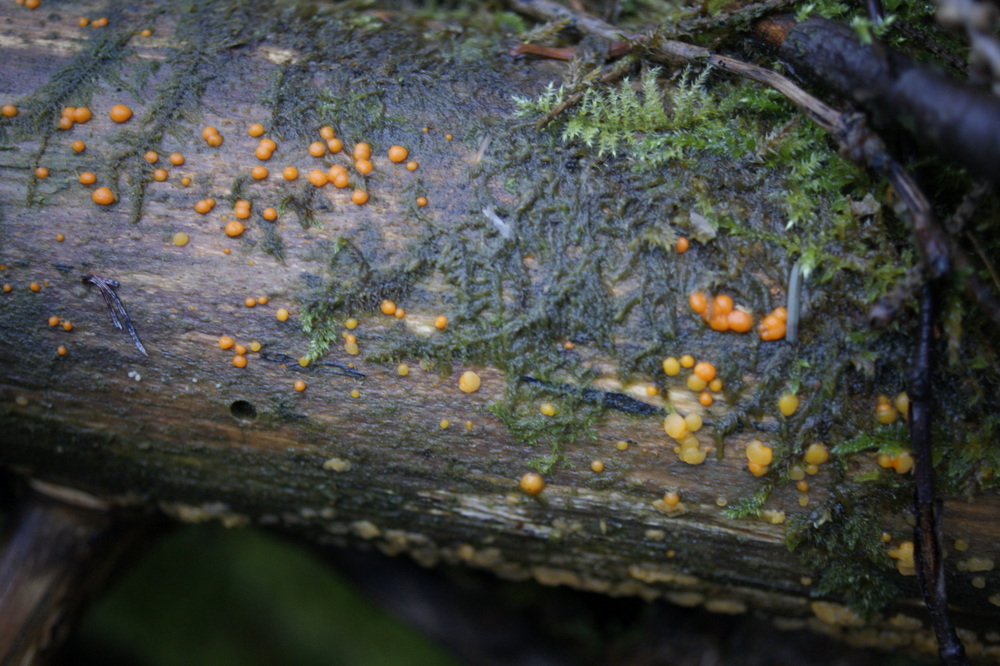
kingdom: Fungi
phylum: Basidiomycota
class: Dacrymycetes
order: Dacrymycetales
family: Dacrymycetaceae
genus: Dacrymyces
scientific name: Dacrymyces stillatus
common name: almindelig tåresvamp
